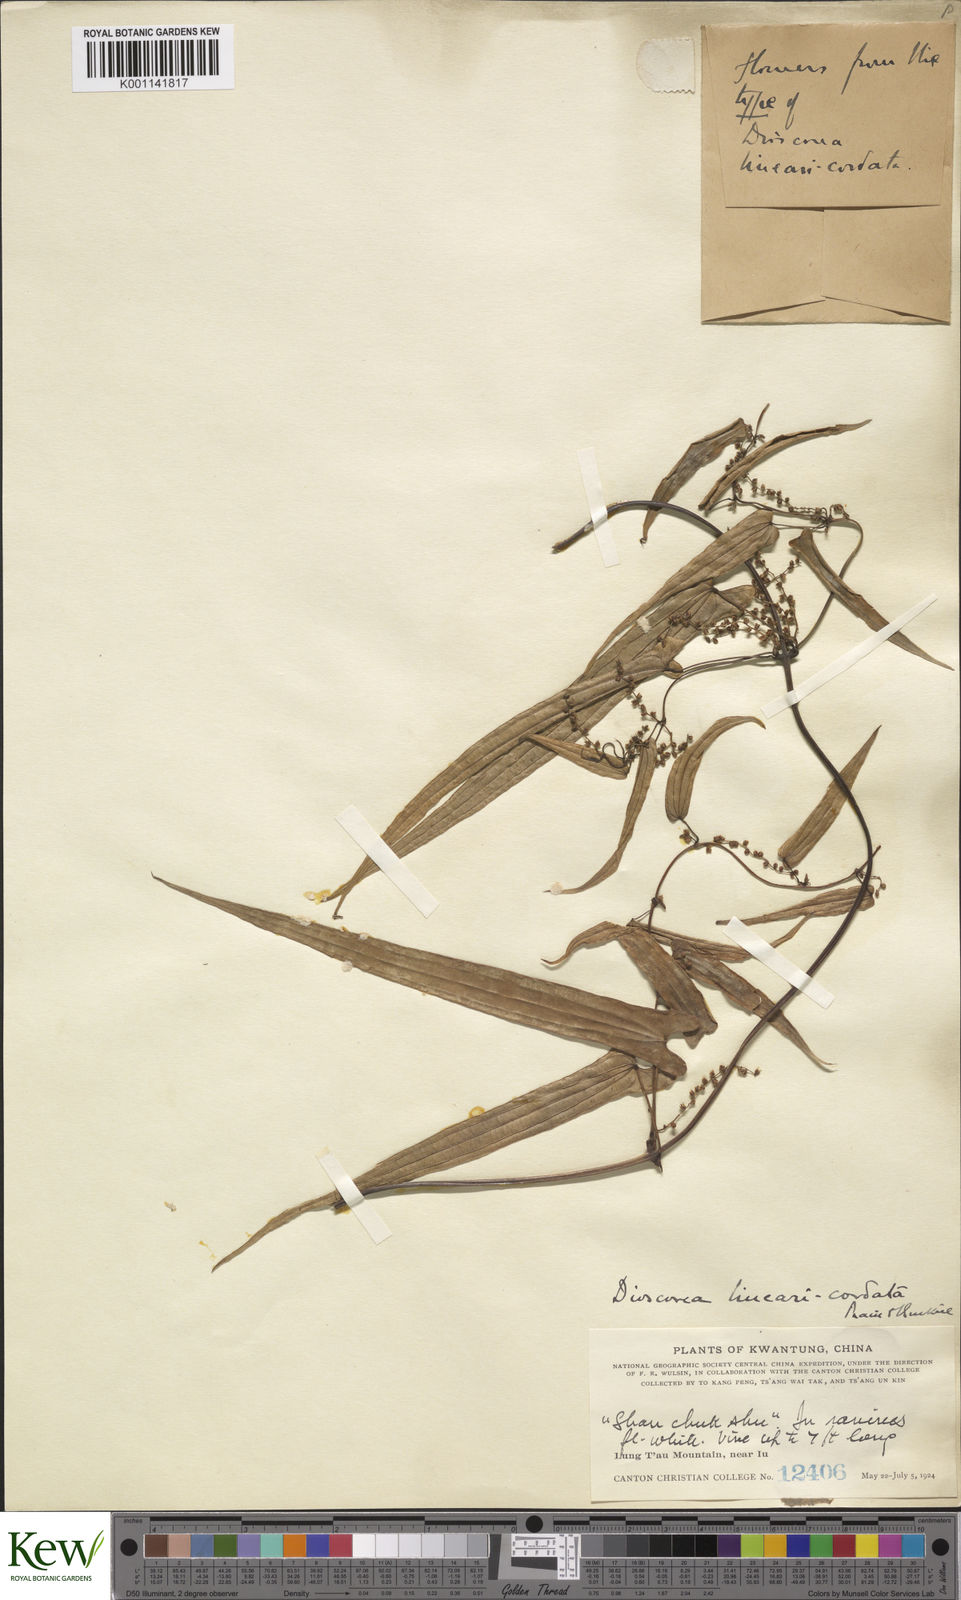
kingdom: Plantae
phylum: Tracheophyta
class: Liliopsida
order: Dioscoreales
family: Dioscoreaceae
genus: Dioscorea
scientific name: Dioscorea linearicordata
